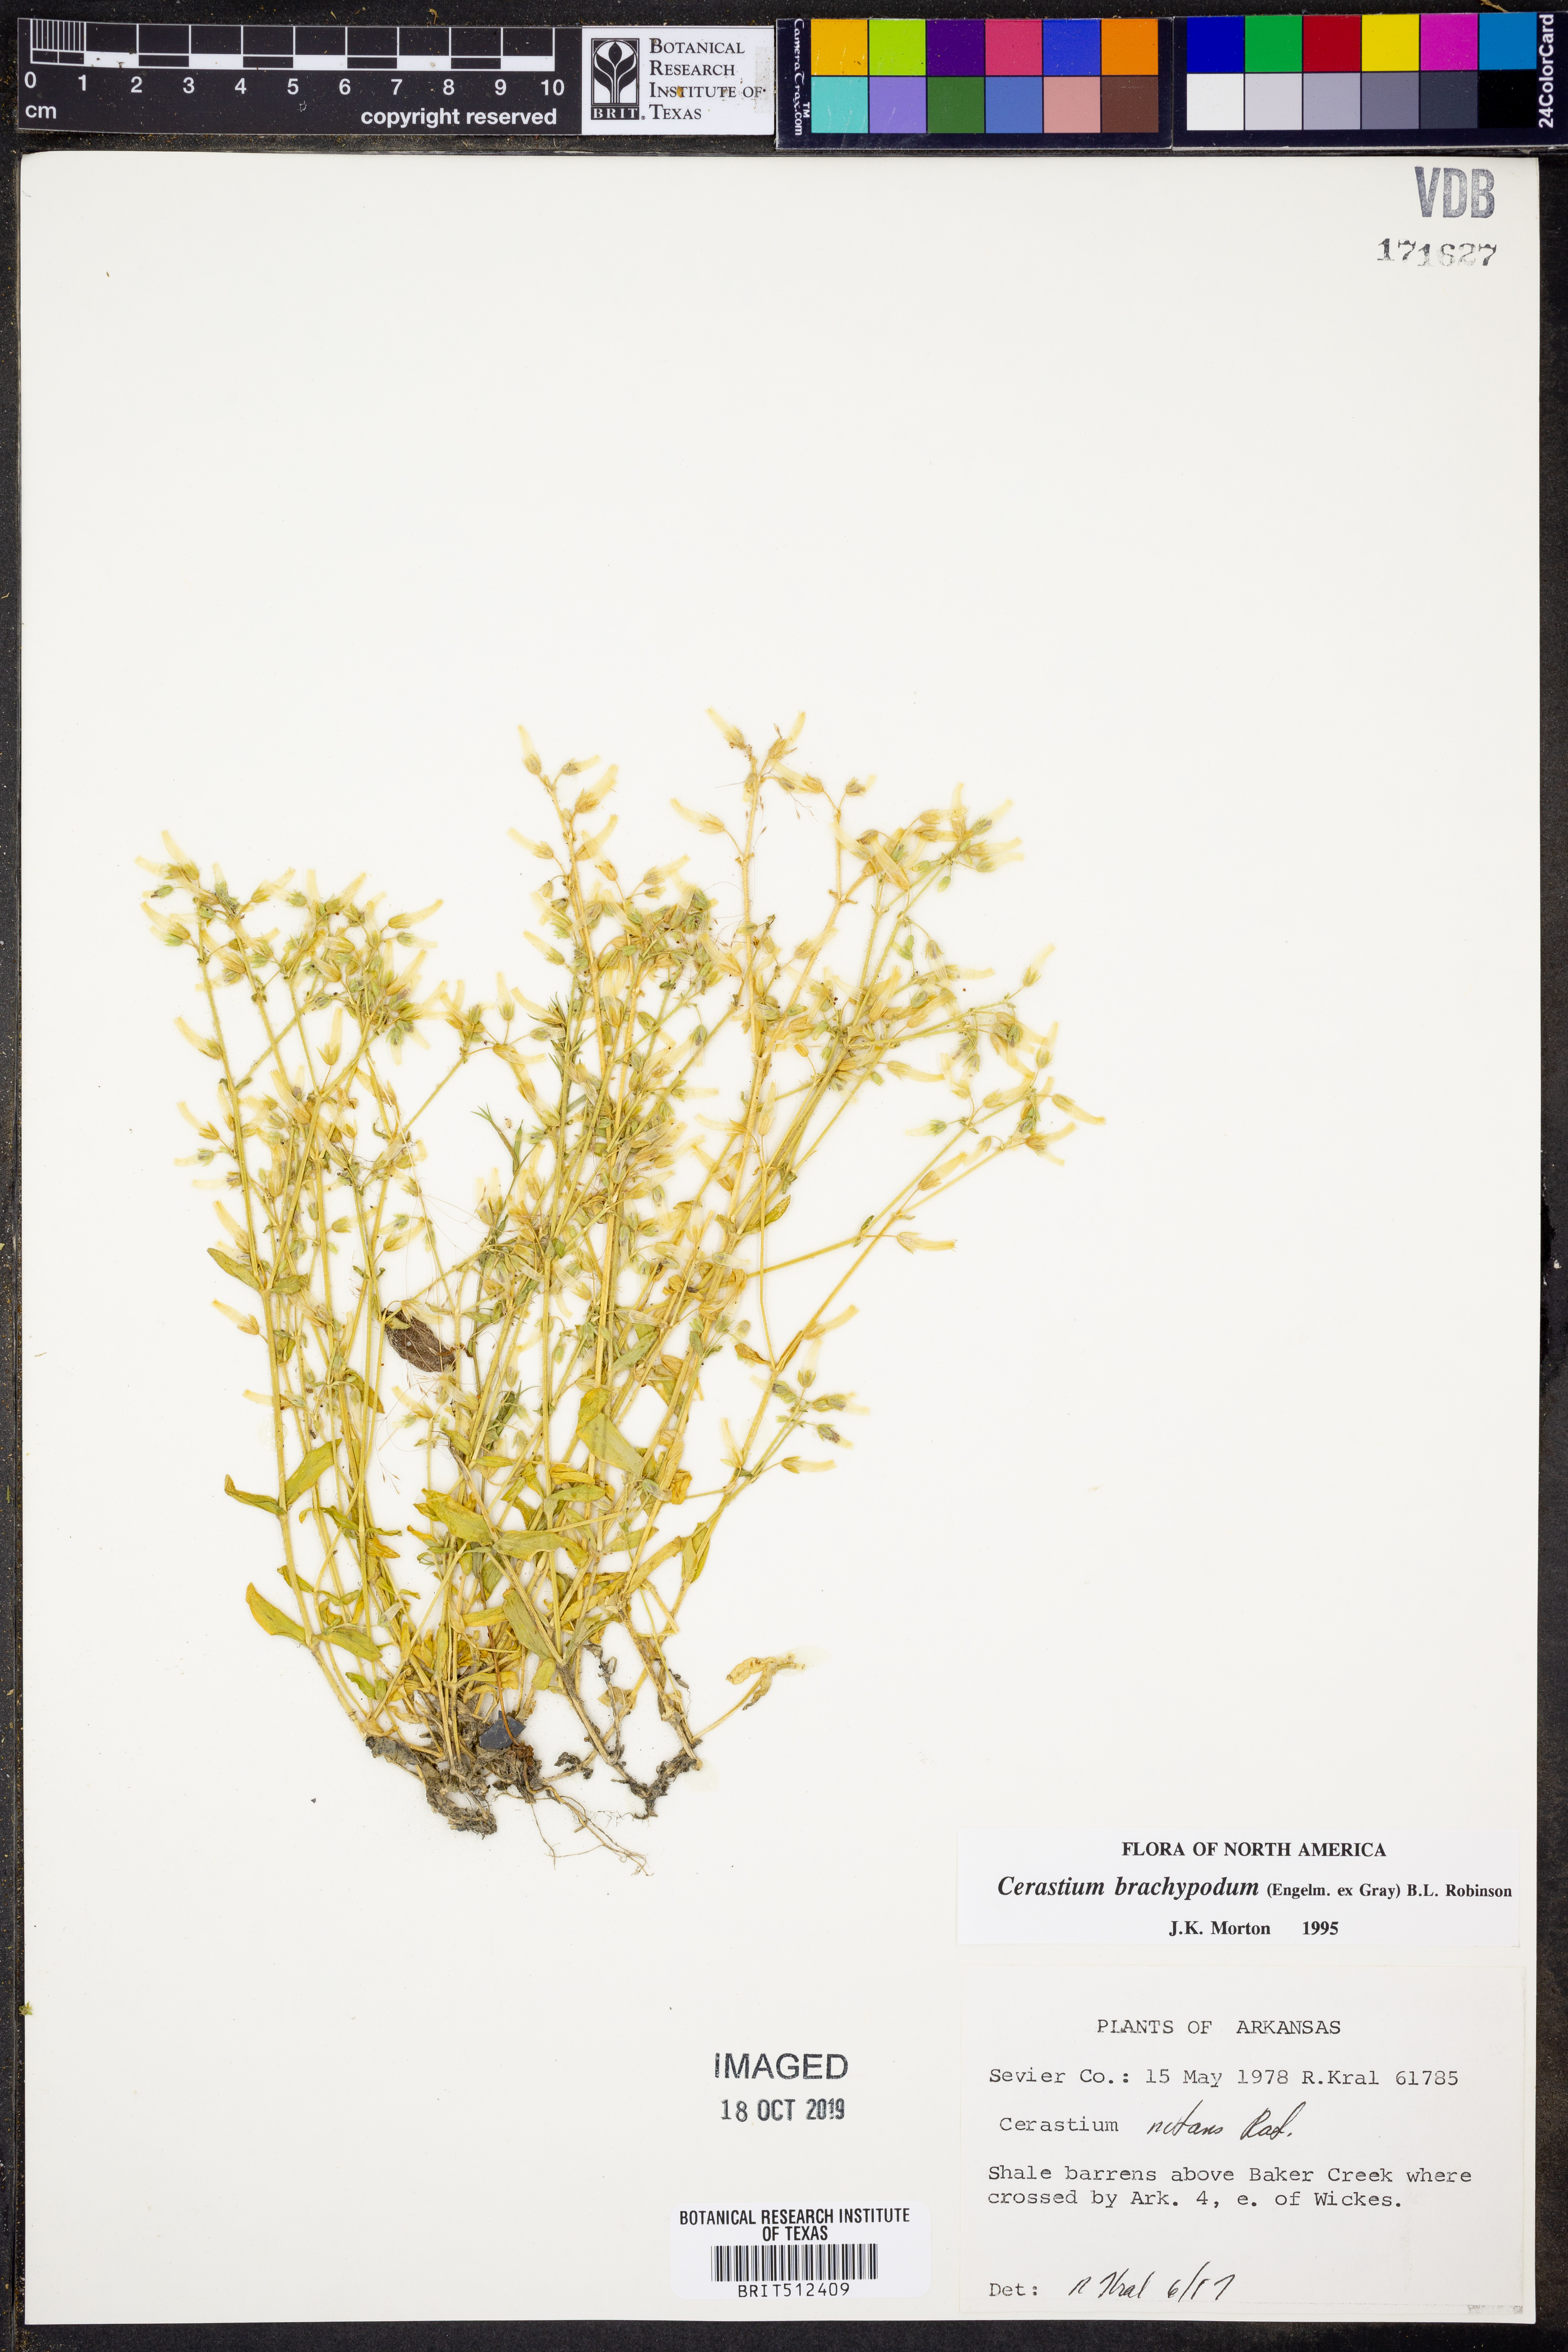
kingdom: Plantae
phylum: Tracheophyta
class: Magnoliopsida
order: Caryophyllales
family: Caryophyllaceae
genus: Cerastium
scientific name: Cerastium brachypodum
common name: Short-pedicelled nodding chickweed
